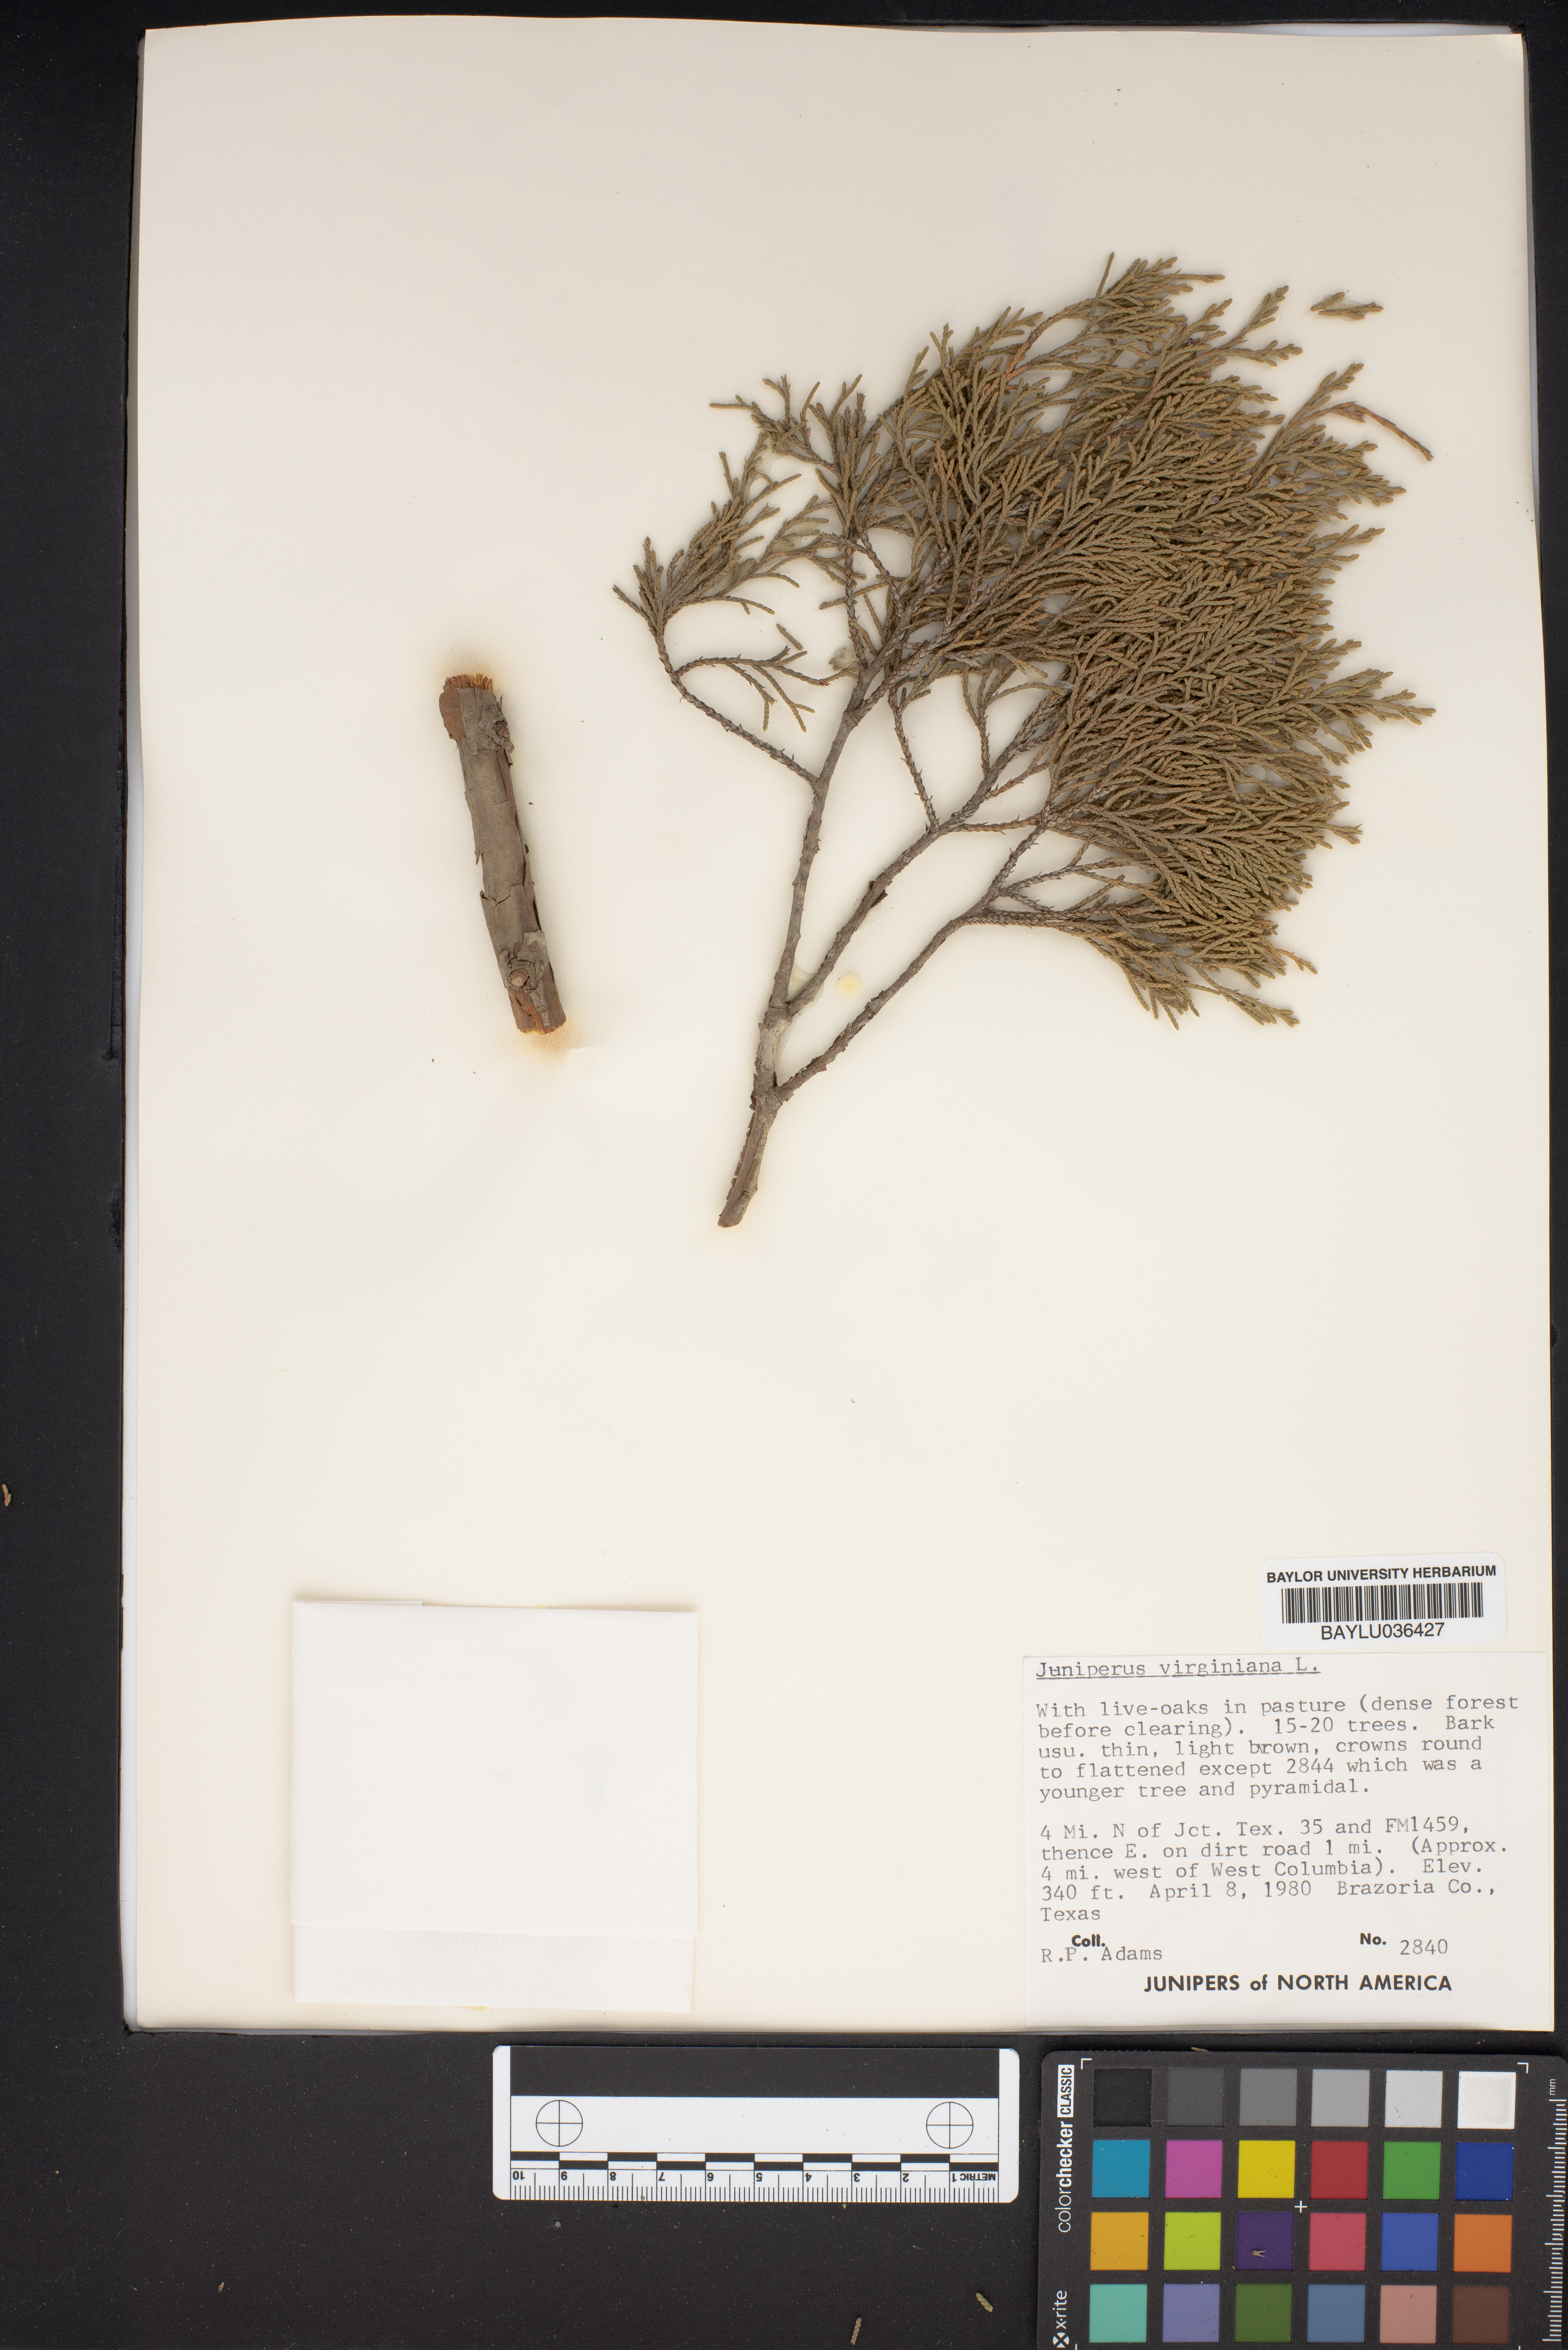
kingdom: Plantae
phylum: Tracheophyta
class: Pinopsida
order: Pinales
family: Cupressaceae
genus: Juniperus
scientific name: Juniperus virginiana
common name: Red juniper
